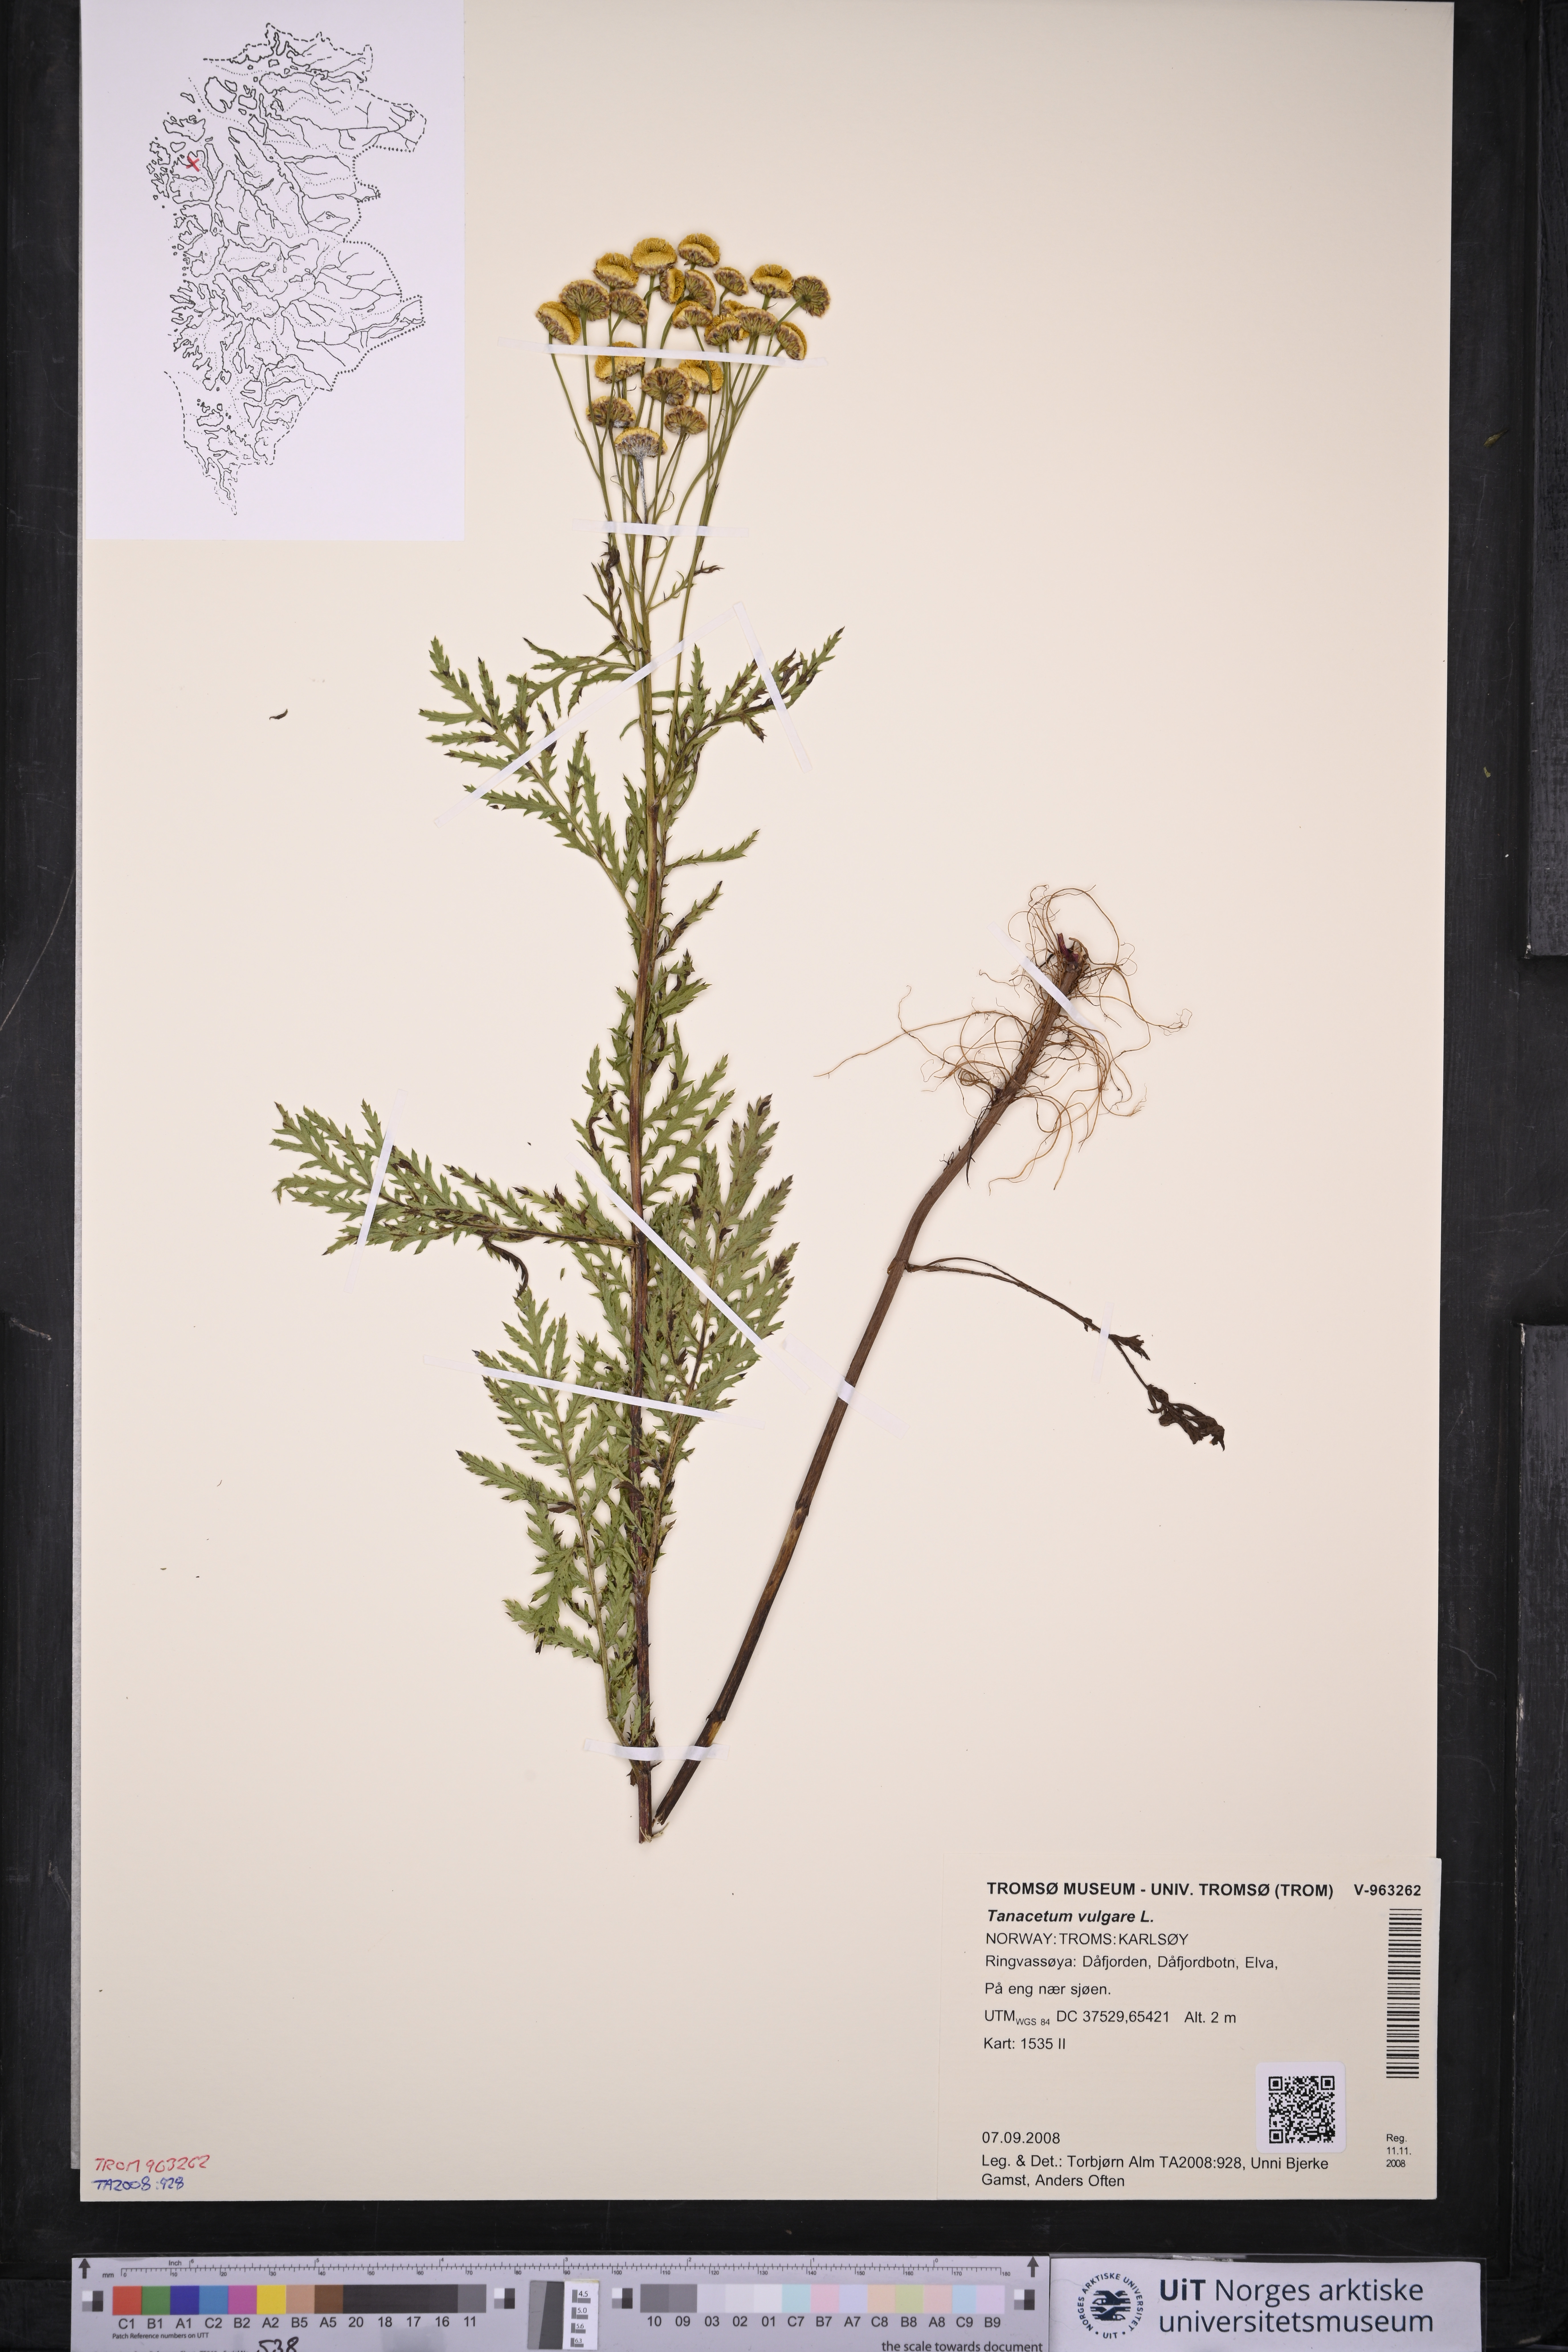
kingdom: Plantae
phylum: Tracheophyta
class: Magnoliopsida
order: Asterales
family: Asteraceae
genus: Tanacetum
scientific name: Tanacetum vulgare
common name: Common tansy
